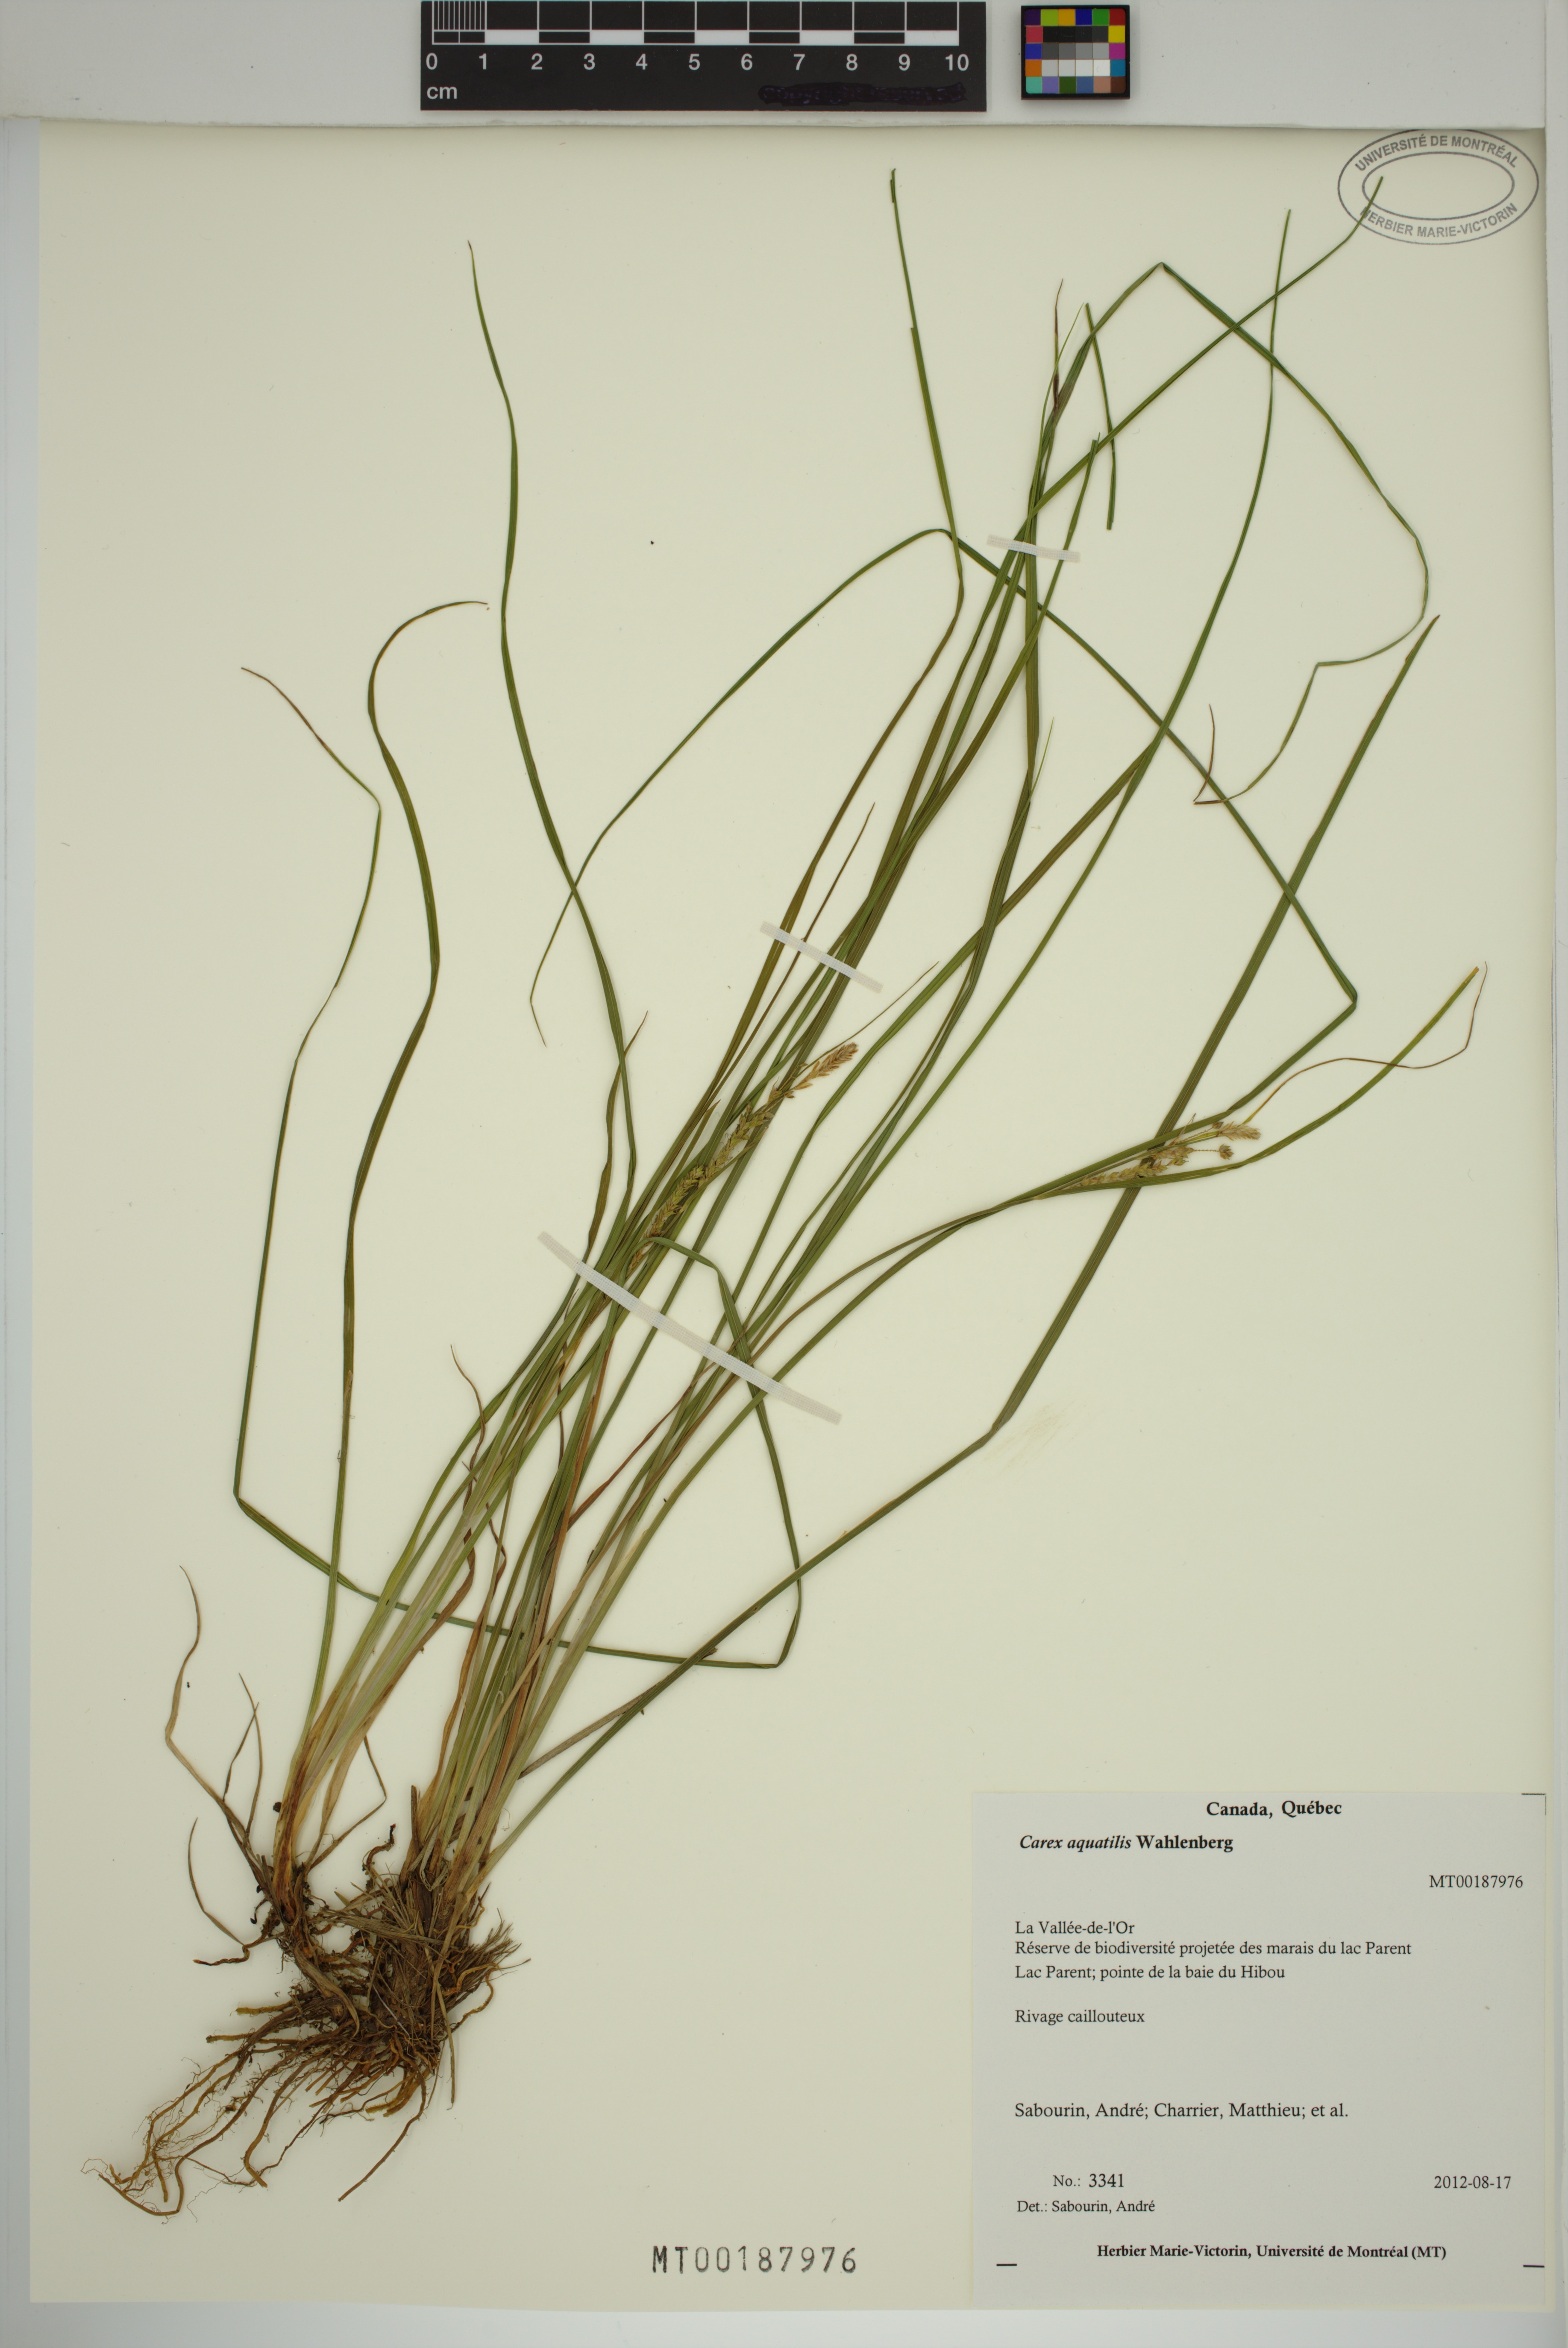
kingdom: Plantae
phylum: Tracheophyta
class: Liliopsida
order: Poales
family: Cyperaceae
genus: Carex
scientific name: Carex aquatilis
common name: Water sedge
